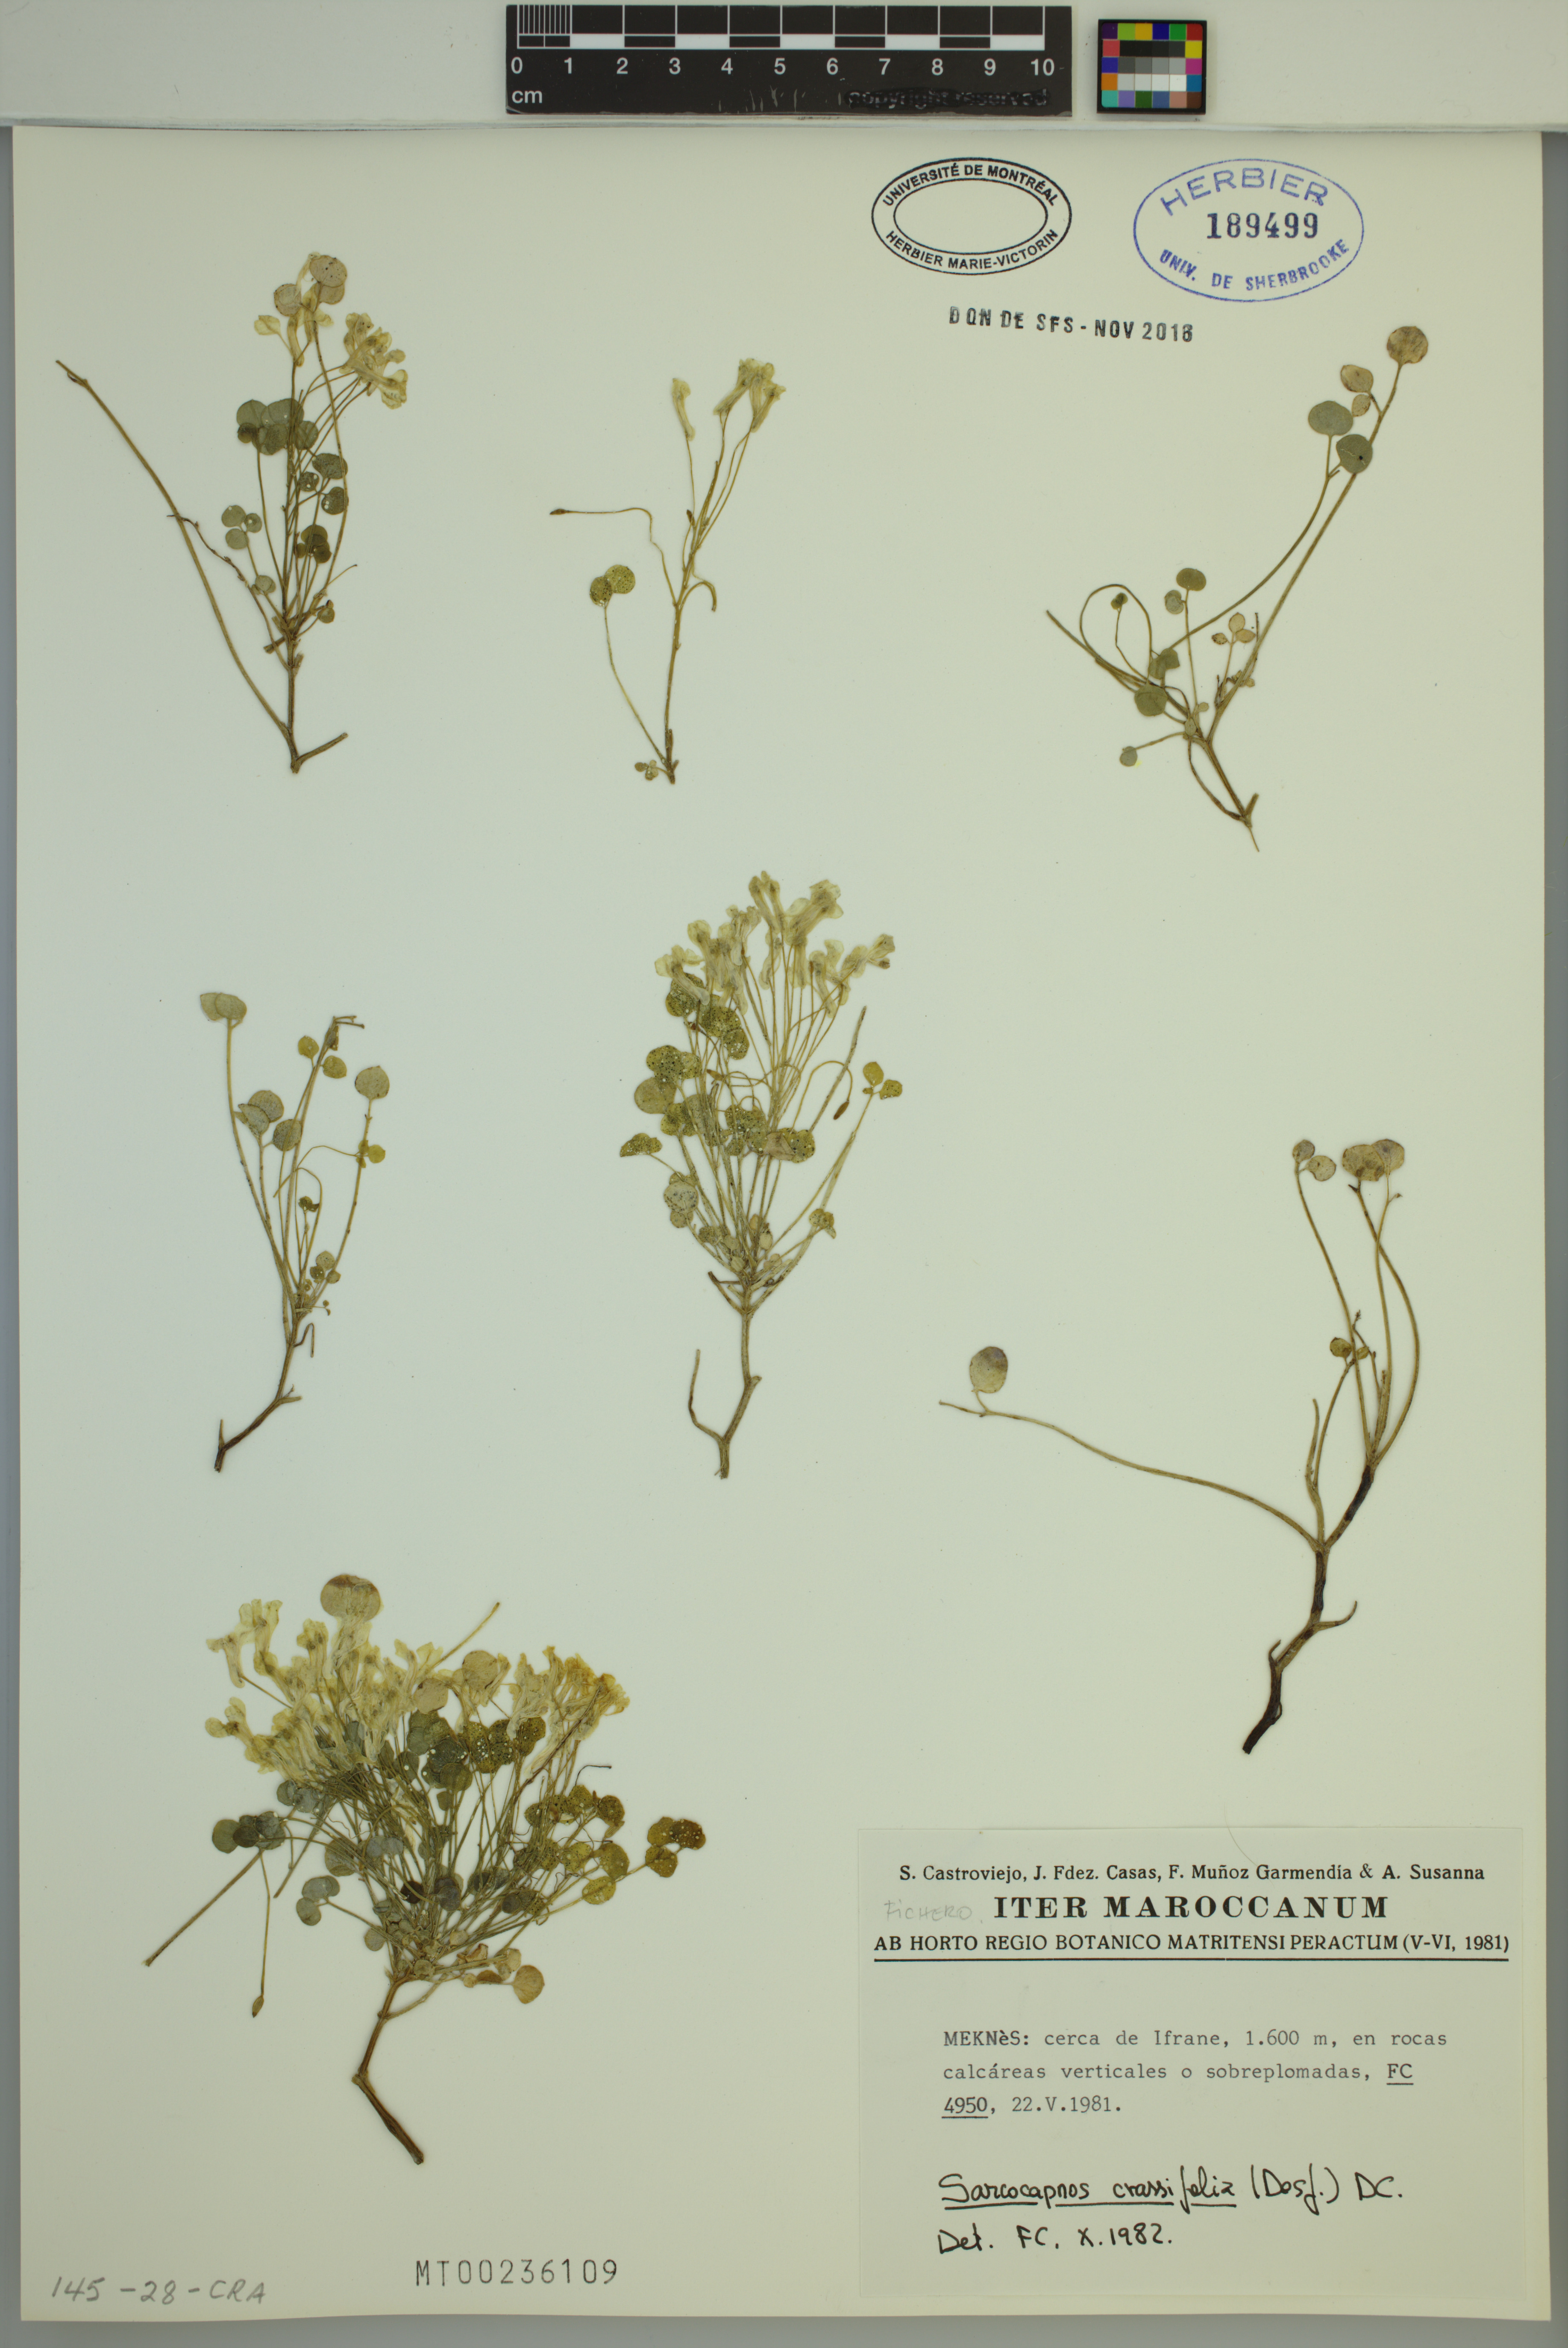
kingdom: Plantae
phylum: Tracheophyta
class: Magnoliopsida
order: Ranunculales
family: Papaveraceae
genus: Sarcocapnos
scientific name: Sarcocapnos crassifolia
